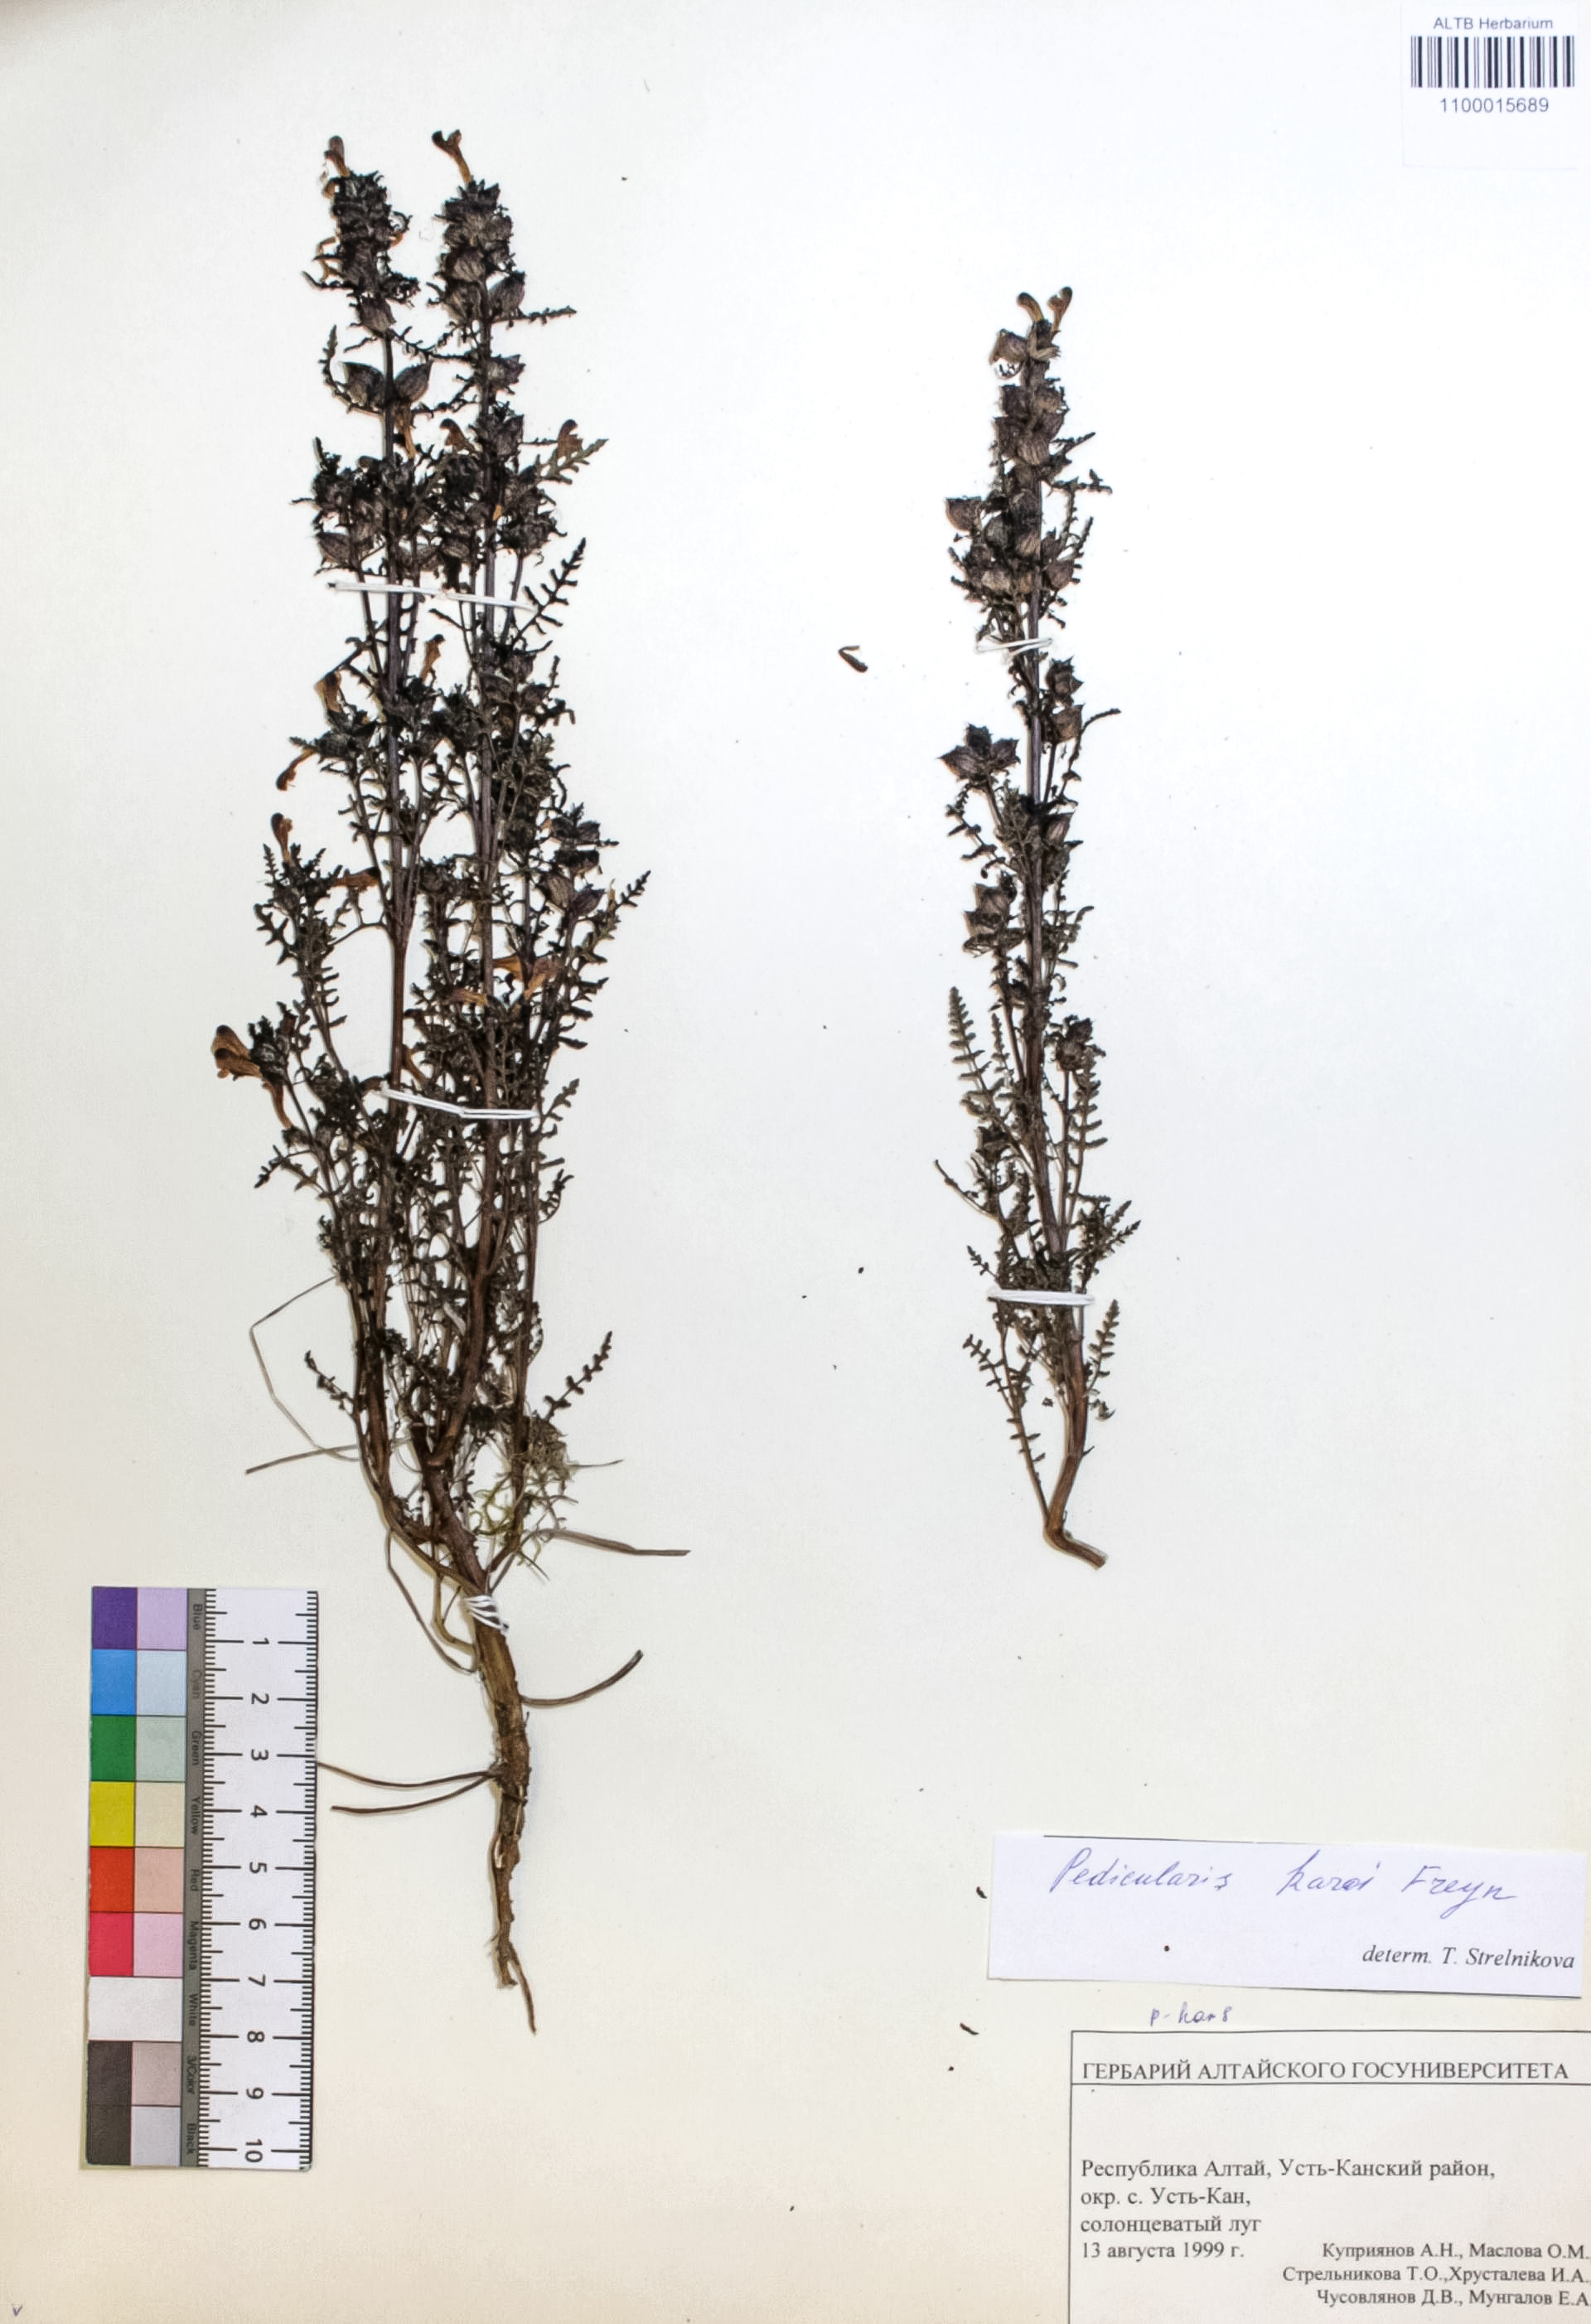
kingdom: Plantae
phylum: Tracheophyta
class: Magnoliopsida
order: Lamiales
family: Orobanchaceae
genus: Pedicularis
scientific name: Pedicularis karoi
